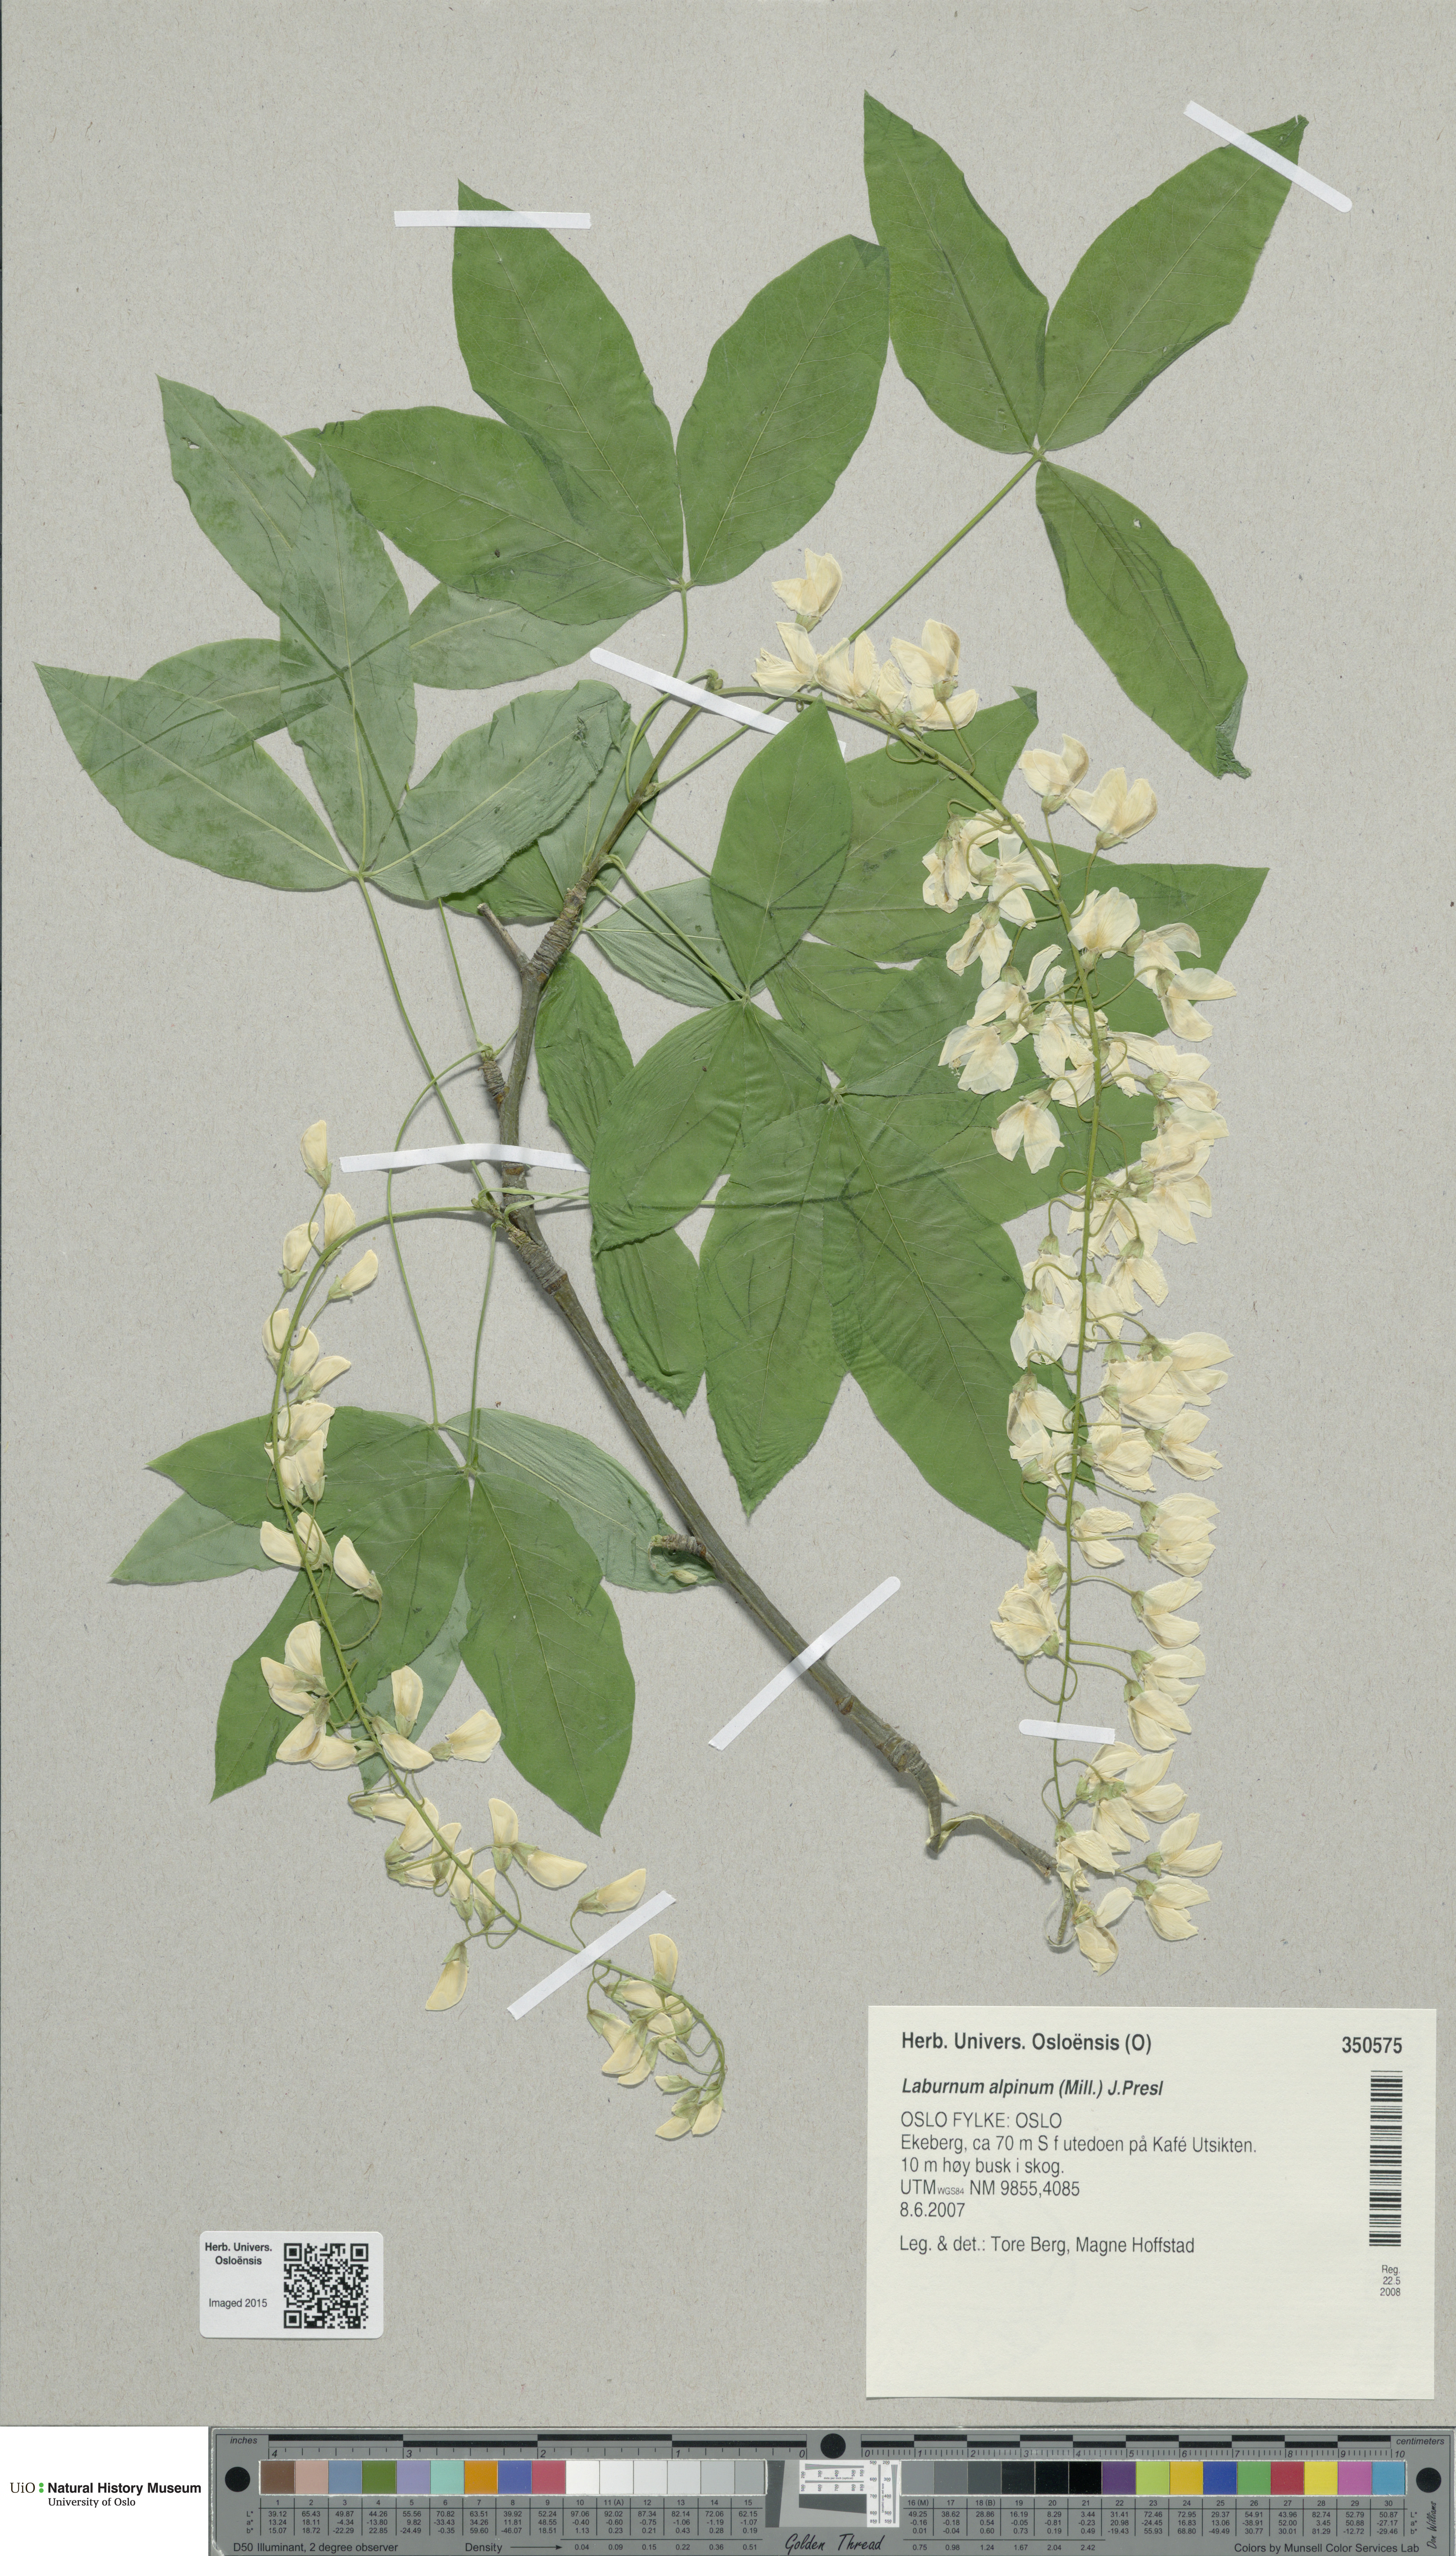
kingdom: Plantae
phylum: Tracheophyta
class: Magnoliopsida
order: Fabales
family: Fabaceae
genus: Laburnum
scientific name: Laburnum alpinum
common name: Scottish laburnum
